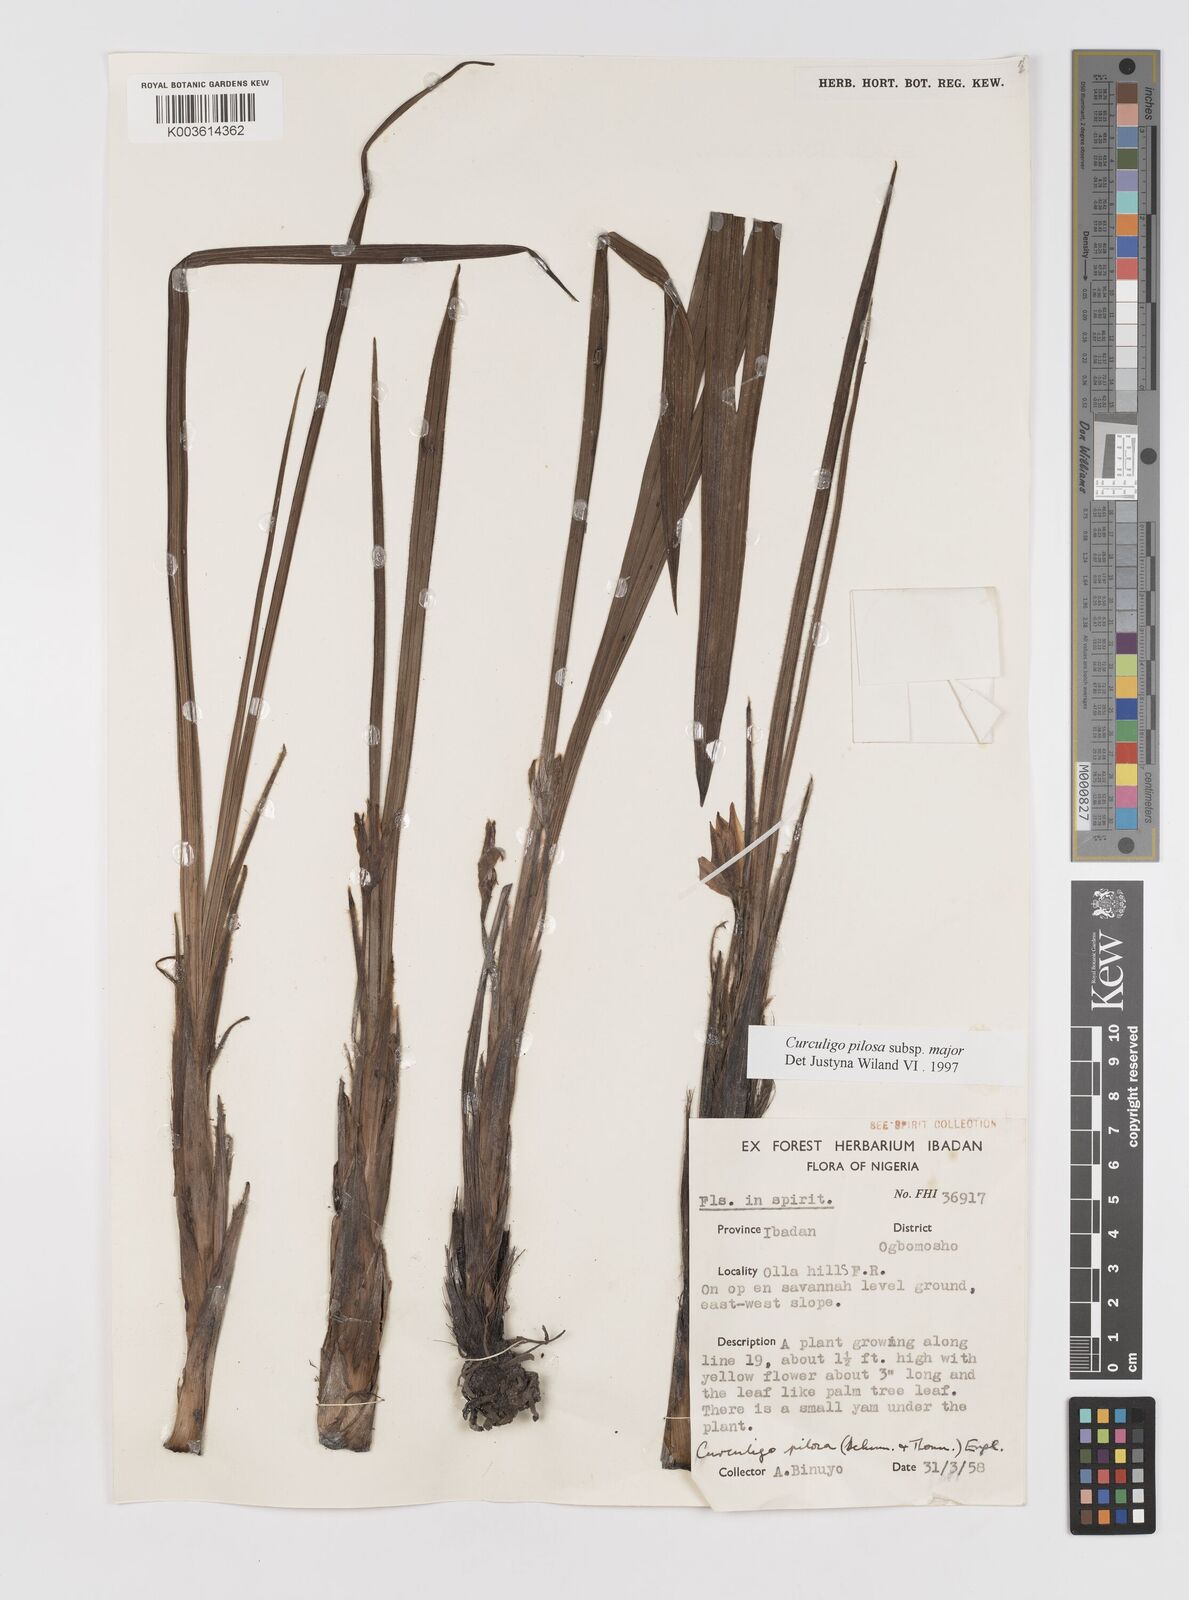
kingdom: Plantae
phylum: Tracheophyta
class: Liliopsida
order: Asparagales
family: Hypoxidaceae
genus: Curculigo
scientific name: Curculigo pilosa
